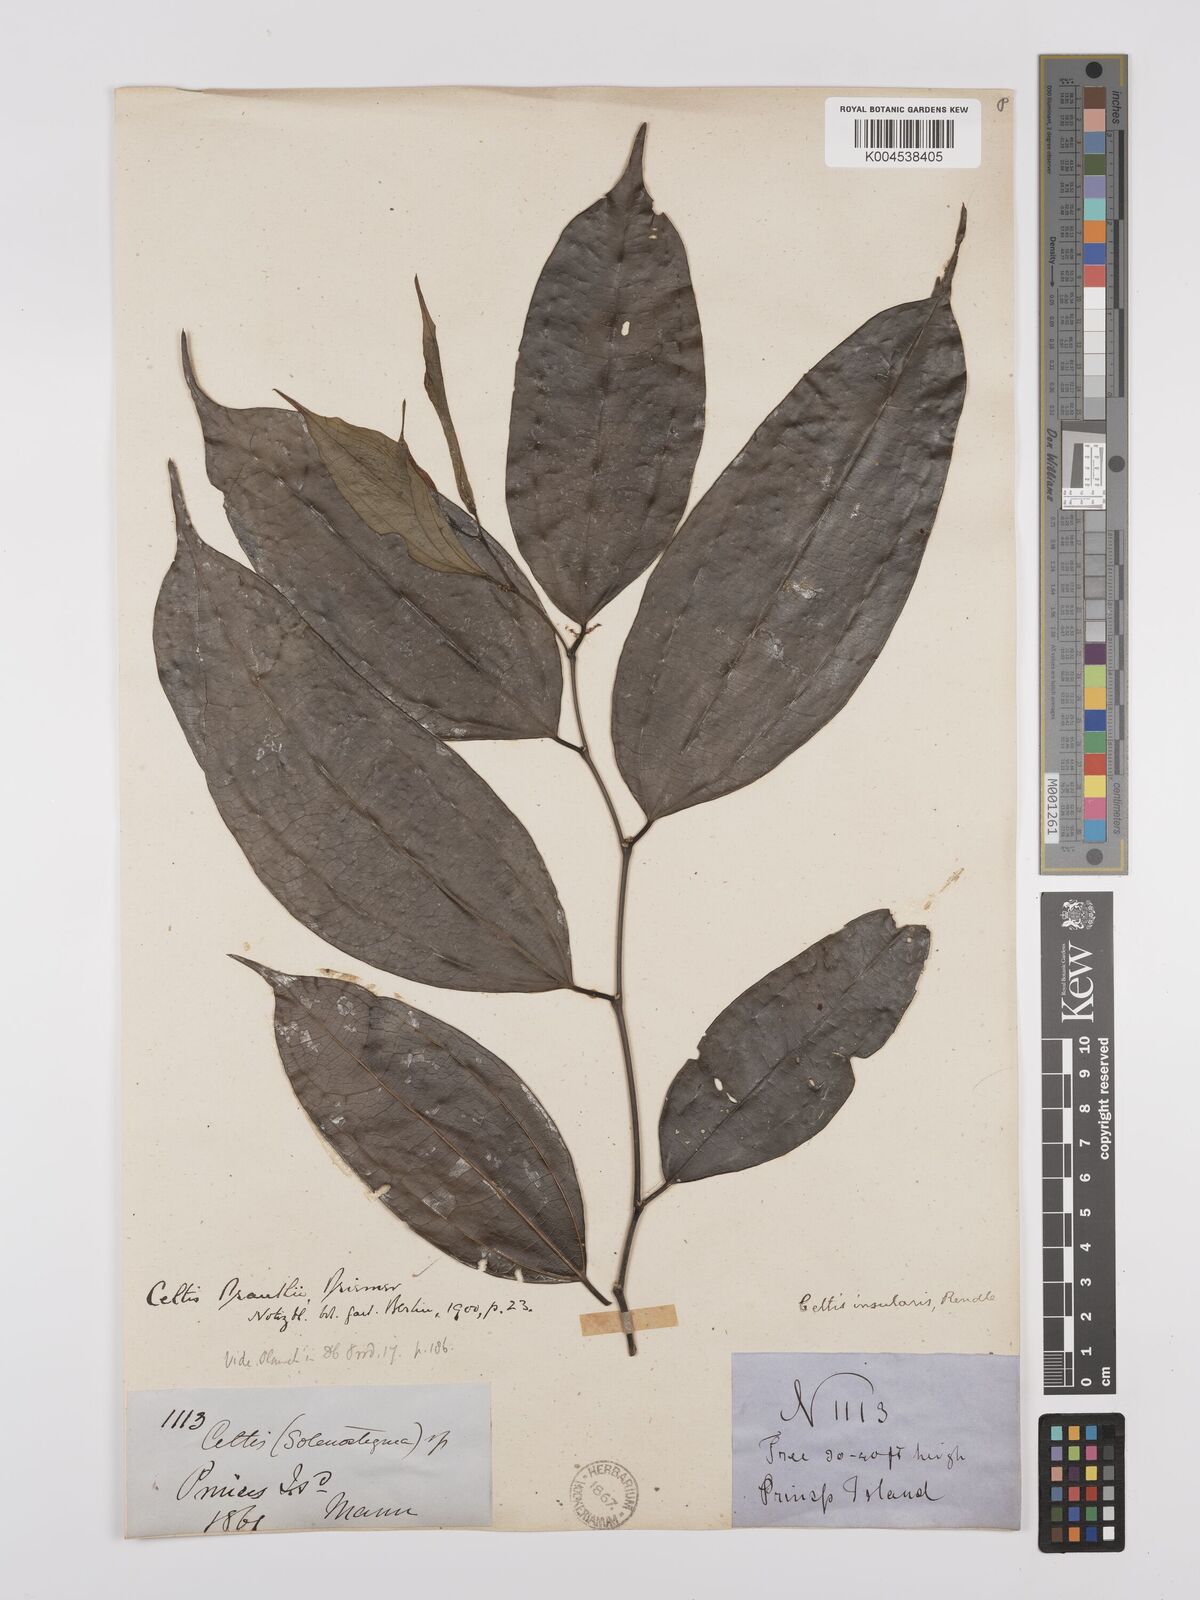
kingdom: Plantae
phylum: Tracheophyta
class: Magnoliopsida
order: Rosales
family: Cannabaceae
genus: Celtis
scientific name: Celtis philippensis
